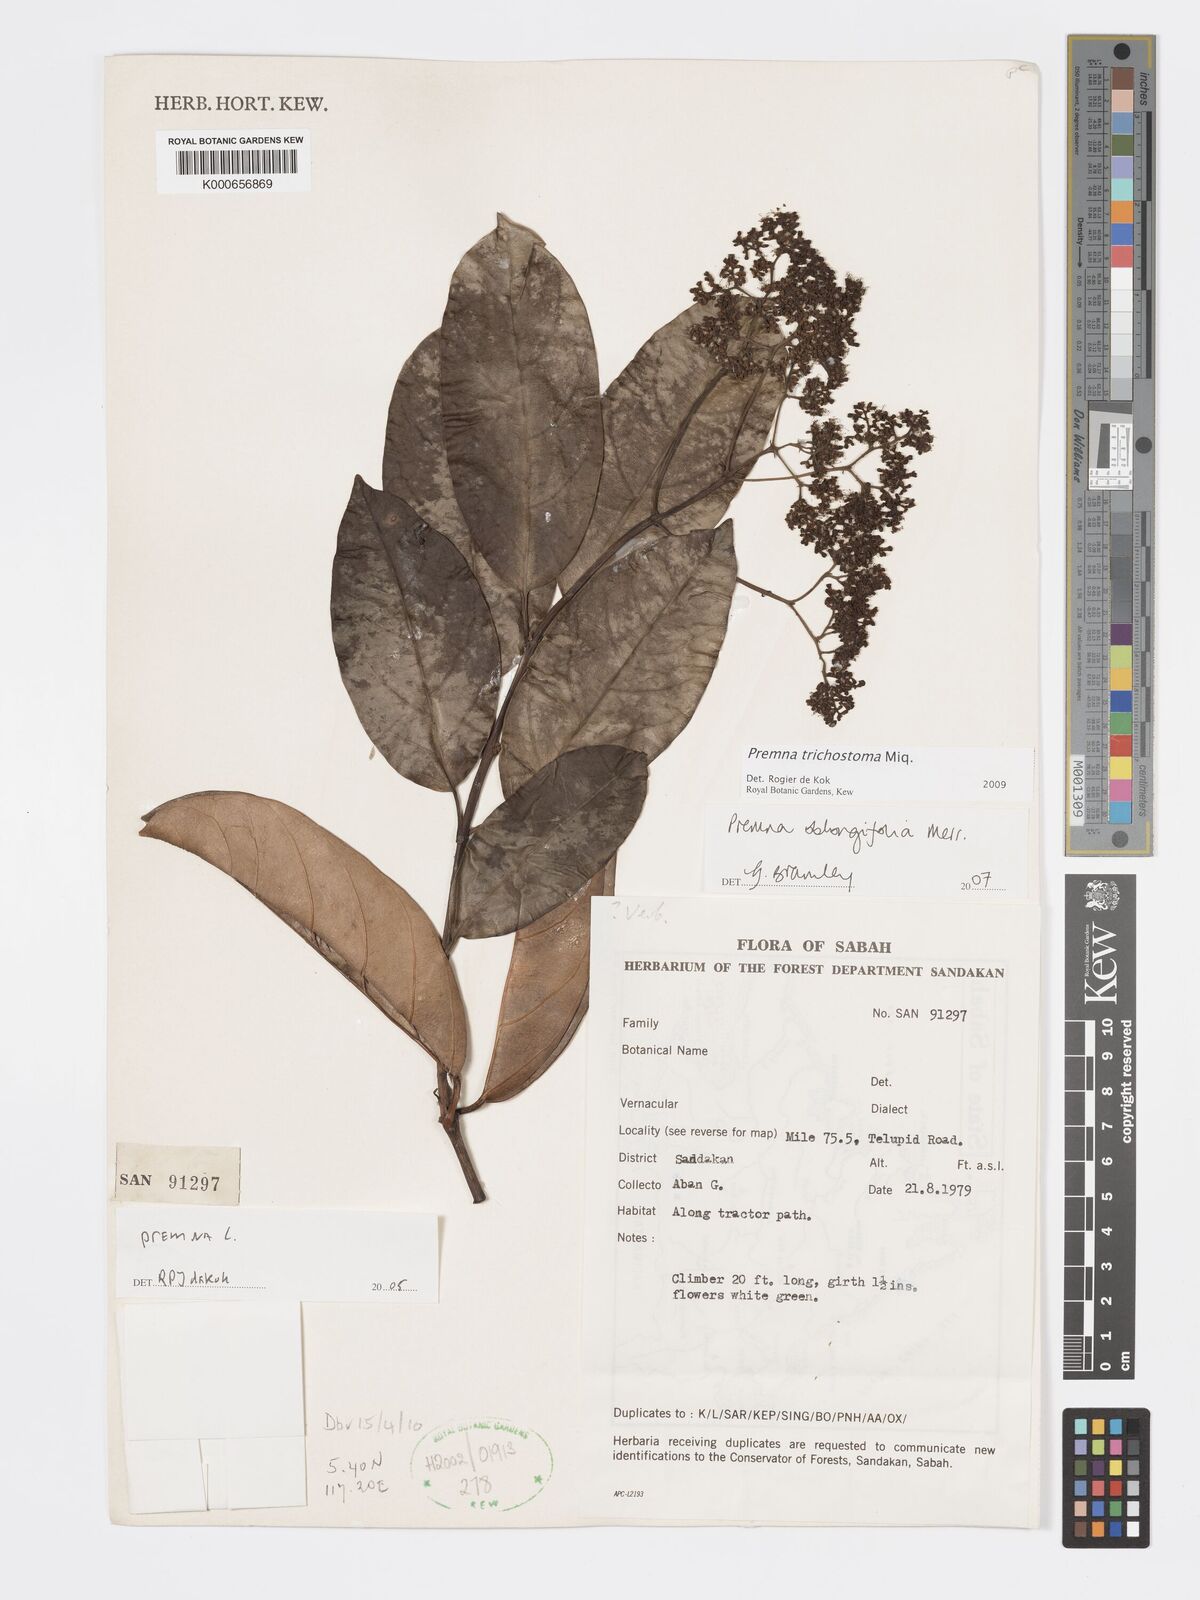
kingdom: Plantae
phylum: Tracheophyta
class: Magnoliopsida
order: Lamiales
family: Lamiaceae
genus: Premna
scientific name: Premna trichostoma
